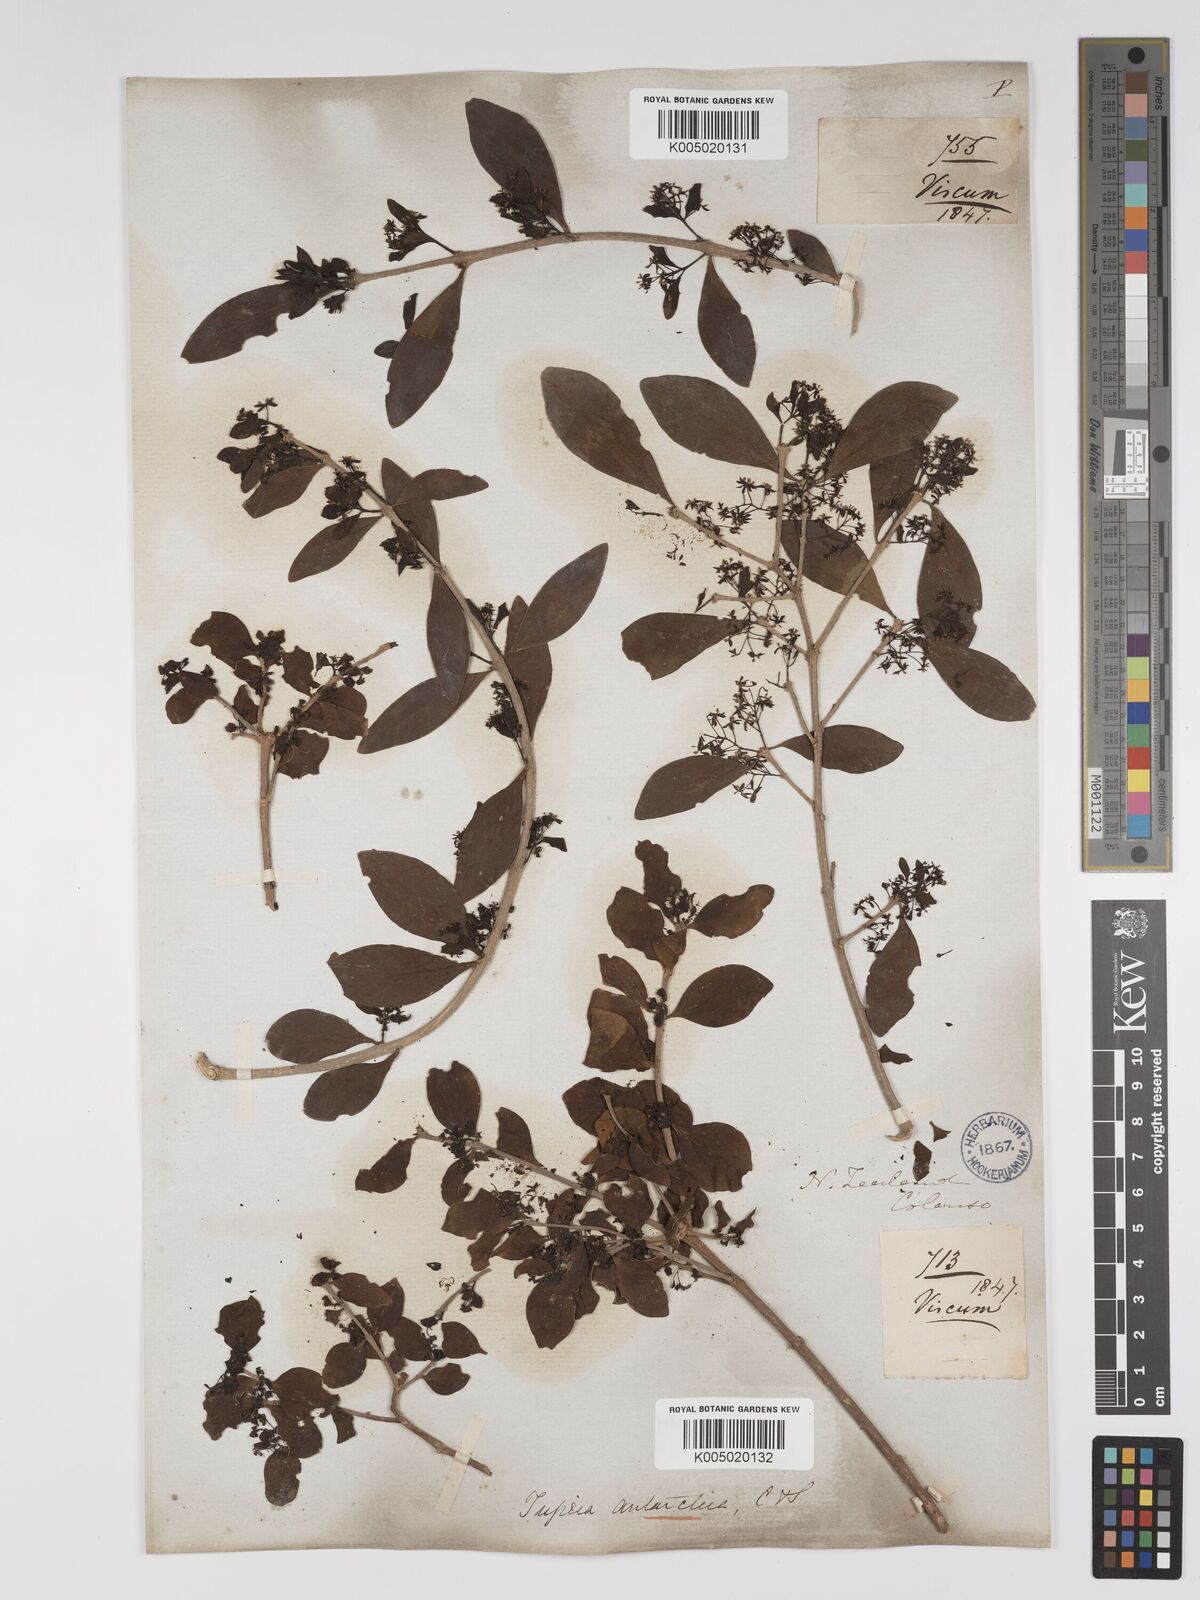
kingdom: Plantae
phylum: Tracheophyta
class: Magnoliopsida
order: Santalales
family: Loranthaceae
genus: Tupeia
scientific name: Tupeia antarctica
